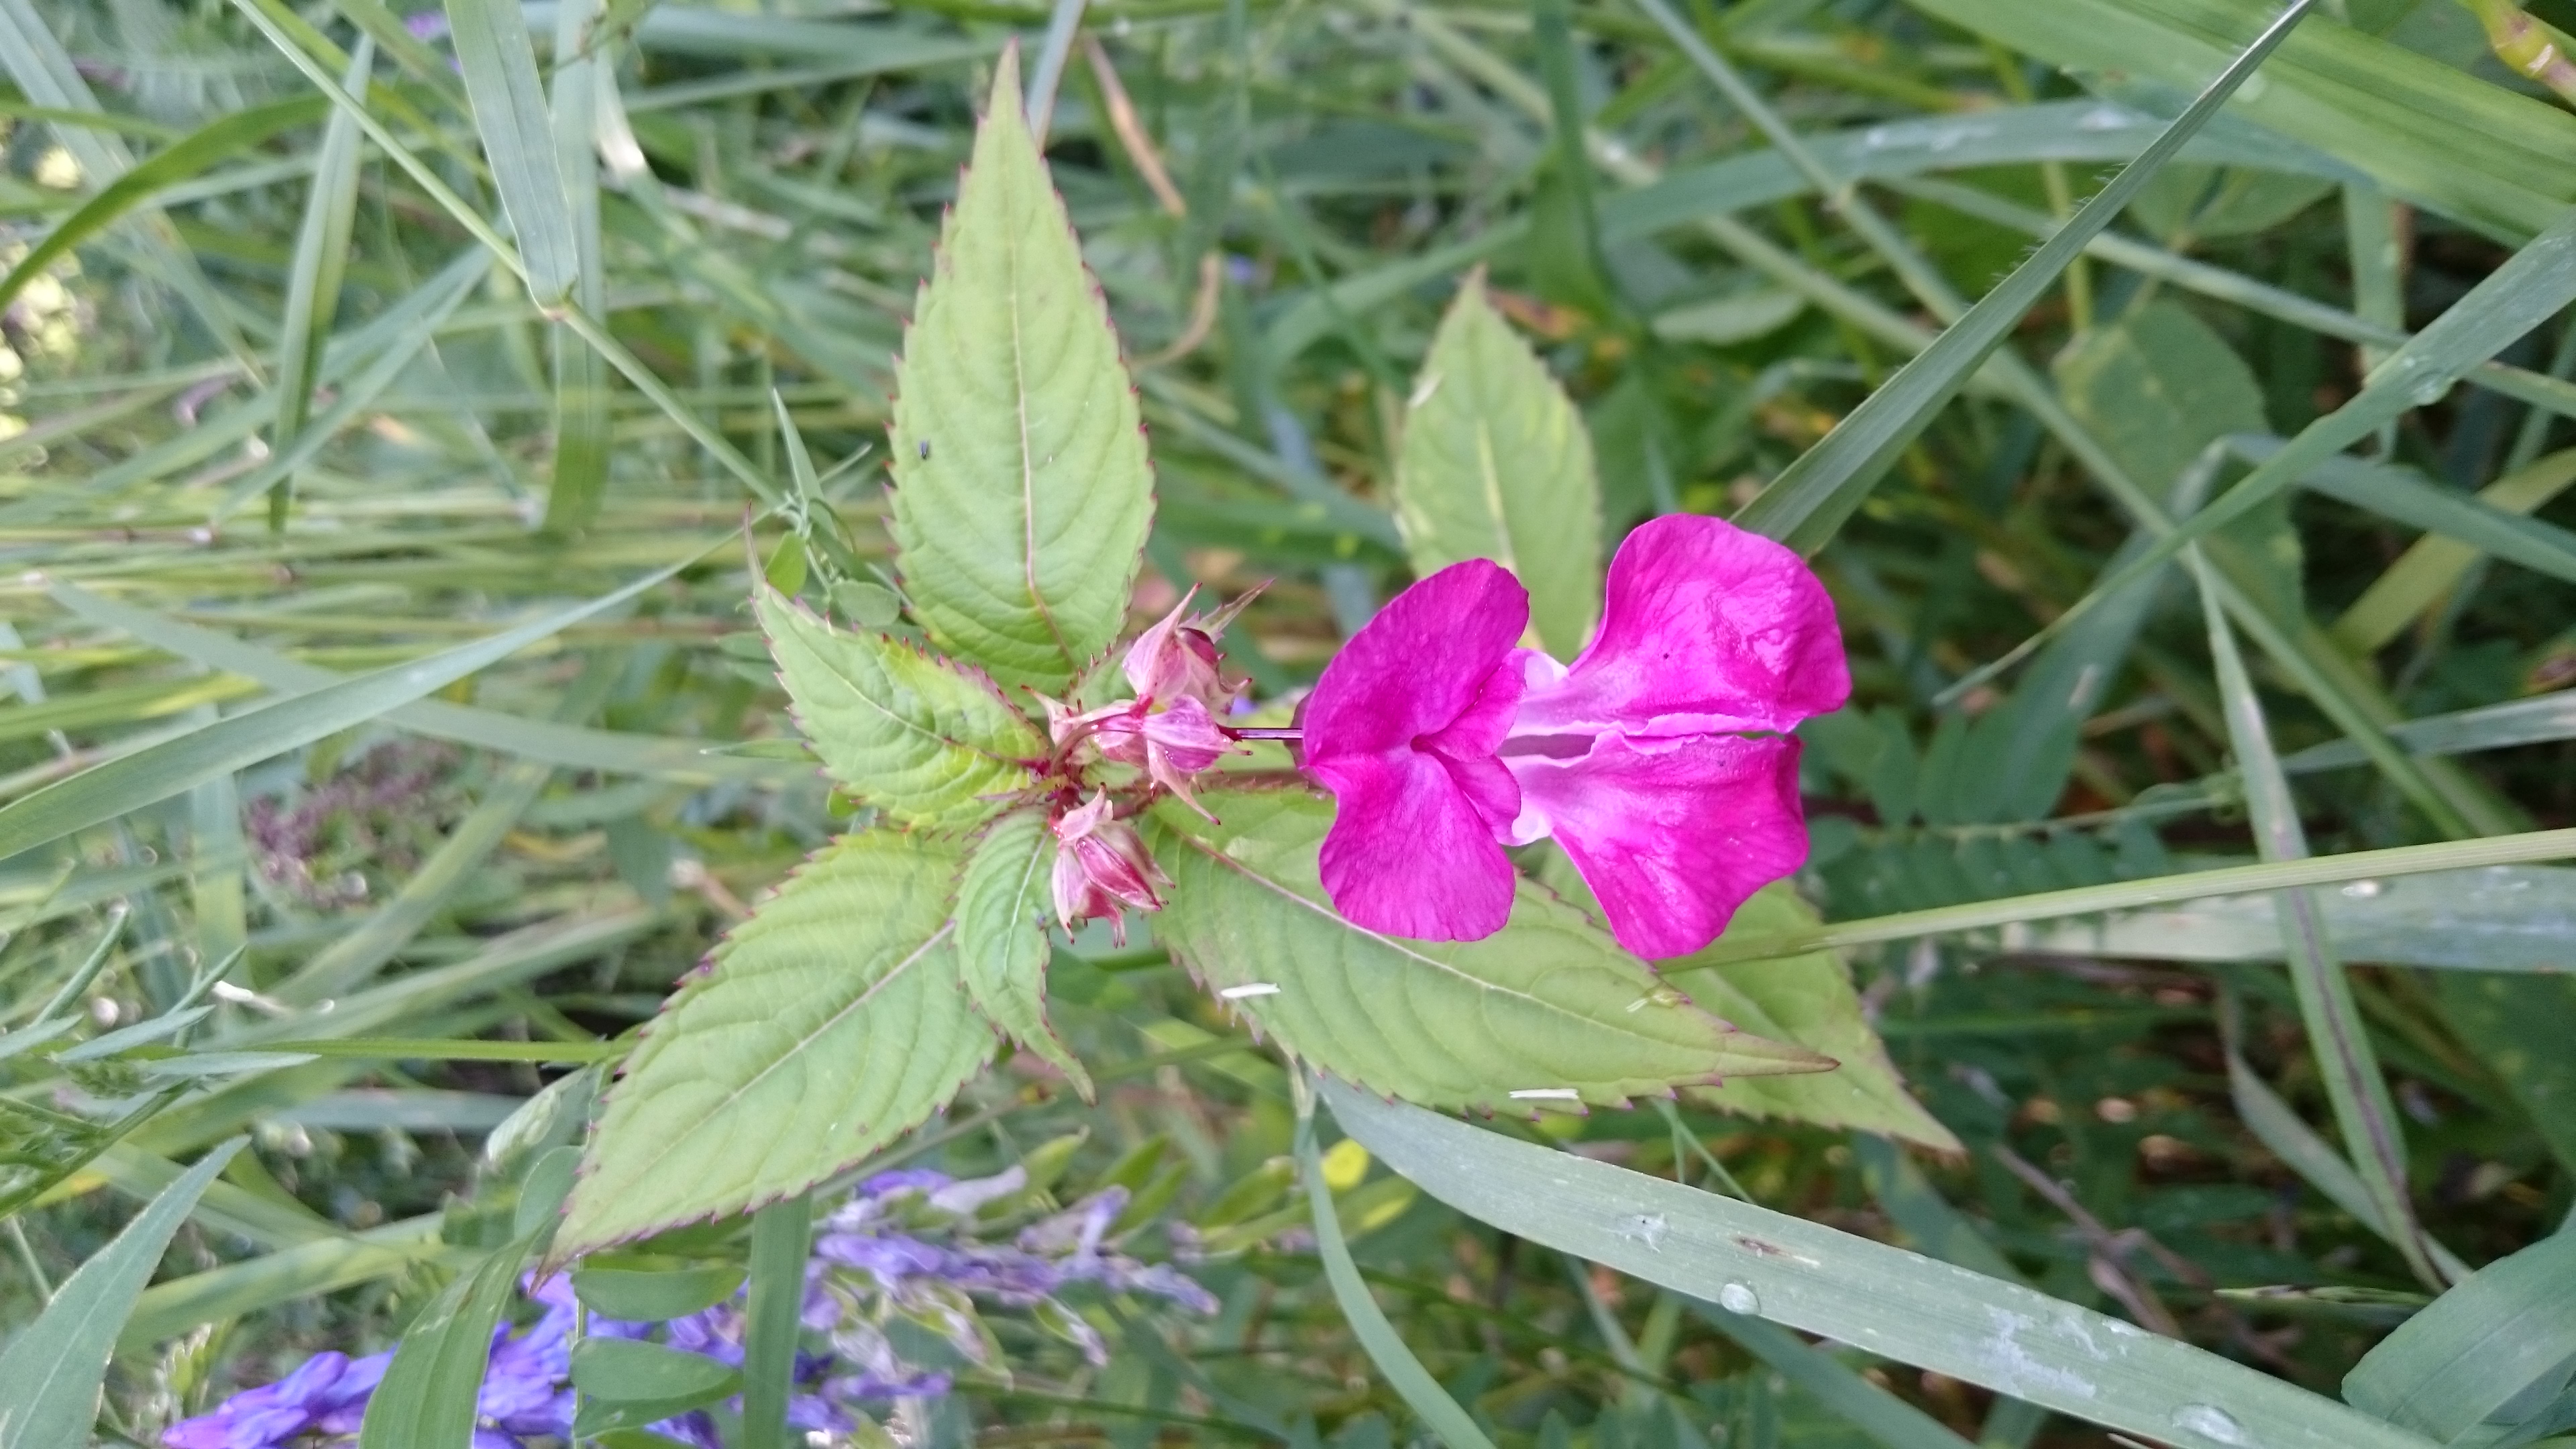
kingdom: Plantae
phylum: Tracheophyta
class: Magnoliopsida
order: Ericales
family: Balsaminaceae
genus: Impatiens
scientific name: Impatiens glandulifera
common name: Himalayan balsam
